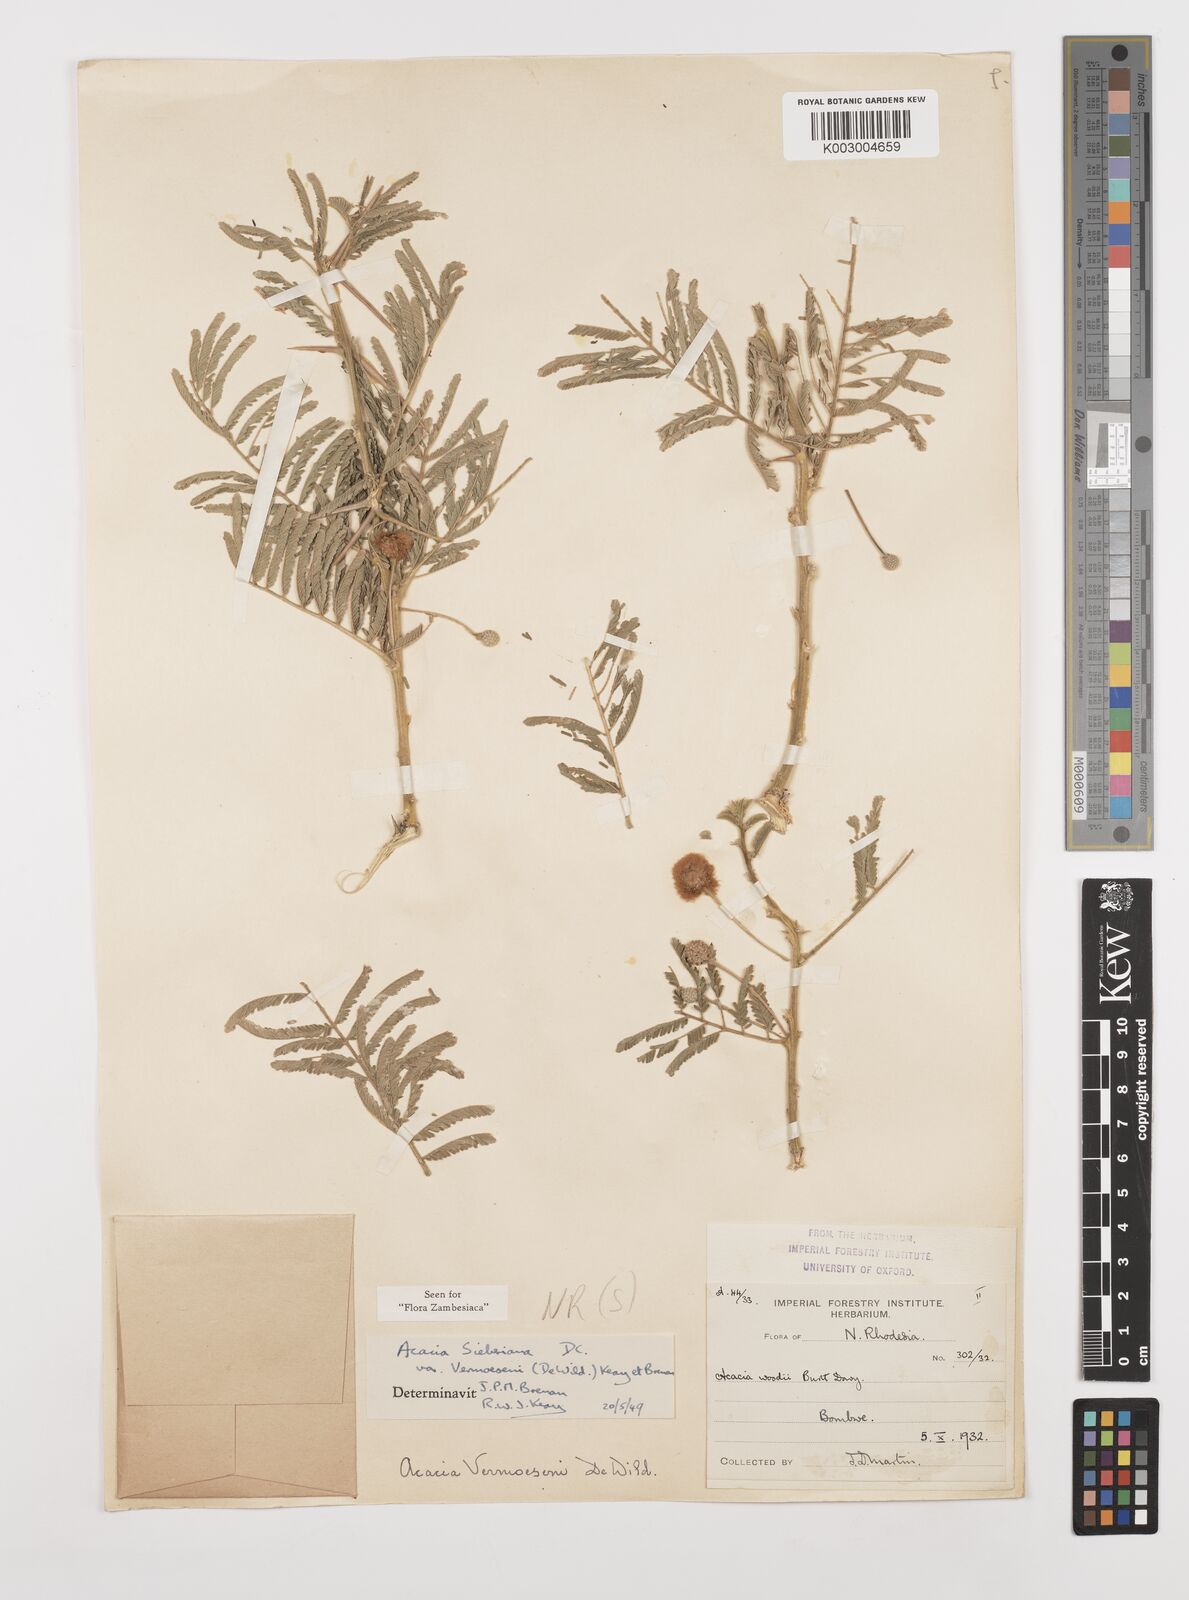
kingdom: Plantae
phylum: Tracheophyta
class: Magnoliopsida
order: Fabales
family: Fabaceae
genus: Vachellia
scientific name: Vachellia sieberiana
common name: Flat-topped thorn
